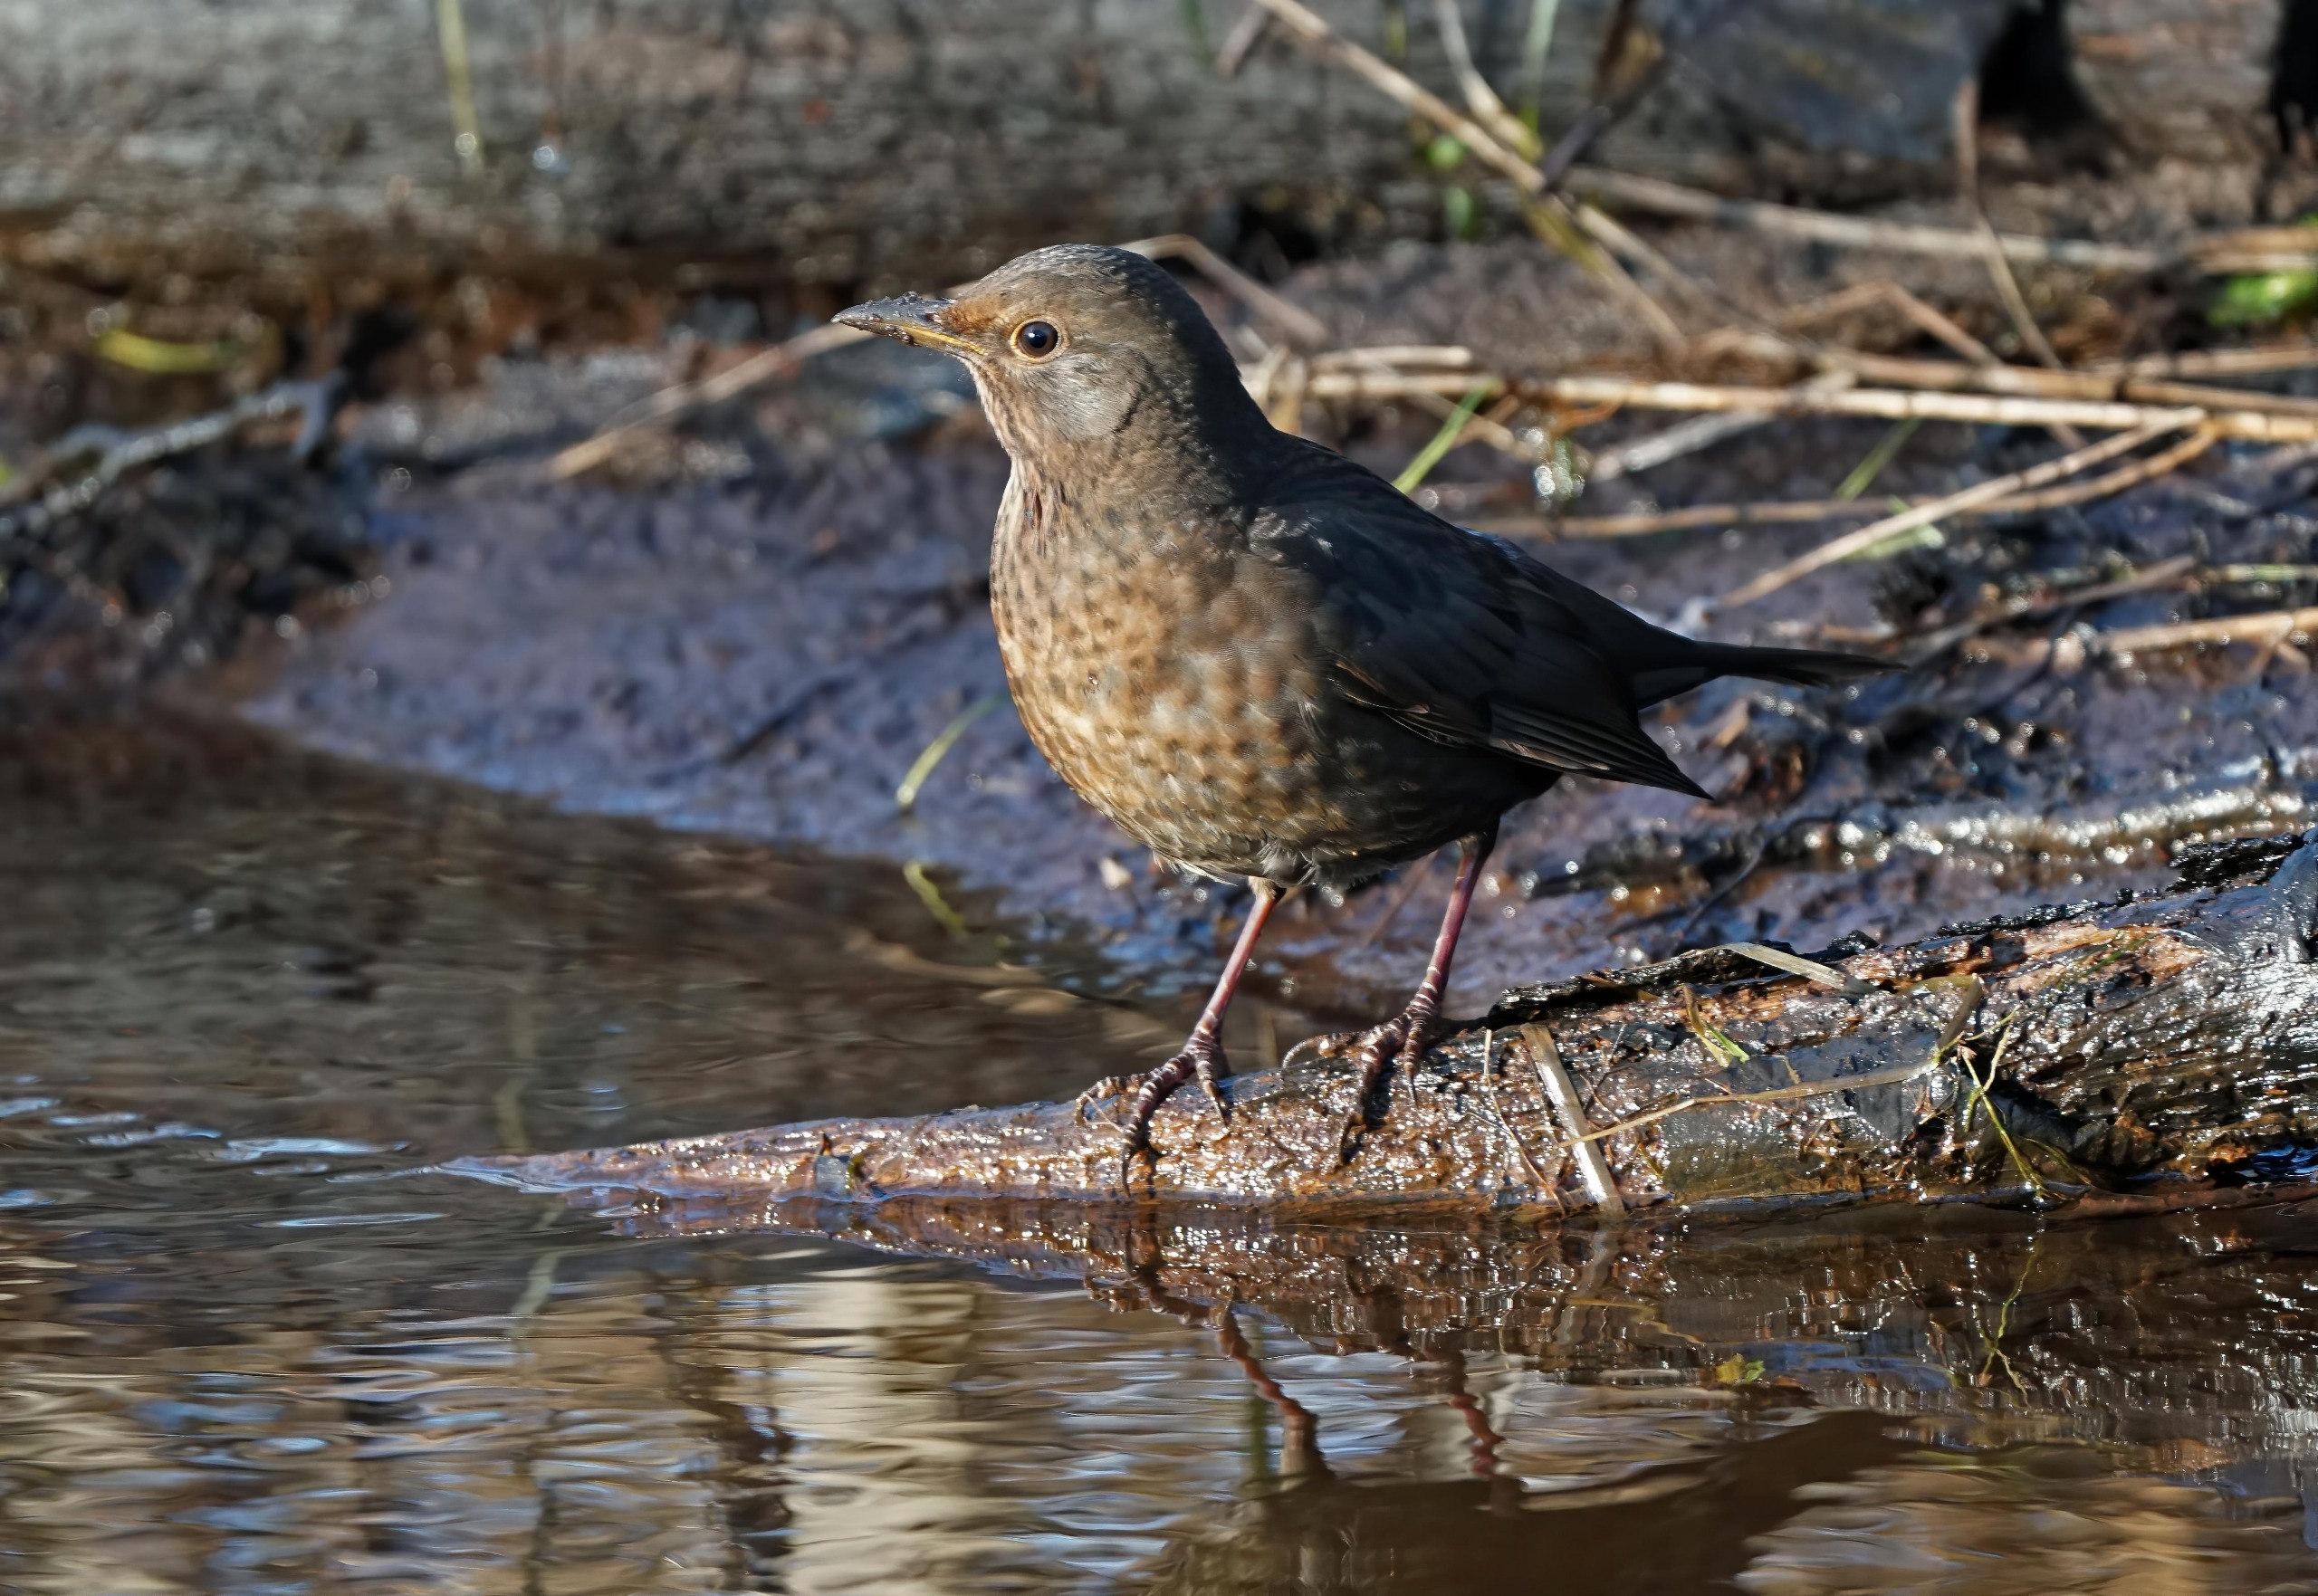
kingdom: Animalia
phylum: Chordata
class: Aves
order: Passeriformes
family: Turdidae
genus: Turdus
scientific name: Turdus merula
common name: Solsort
